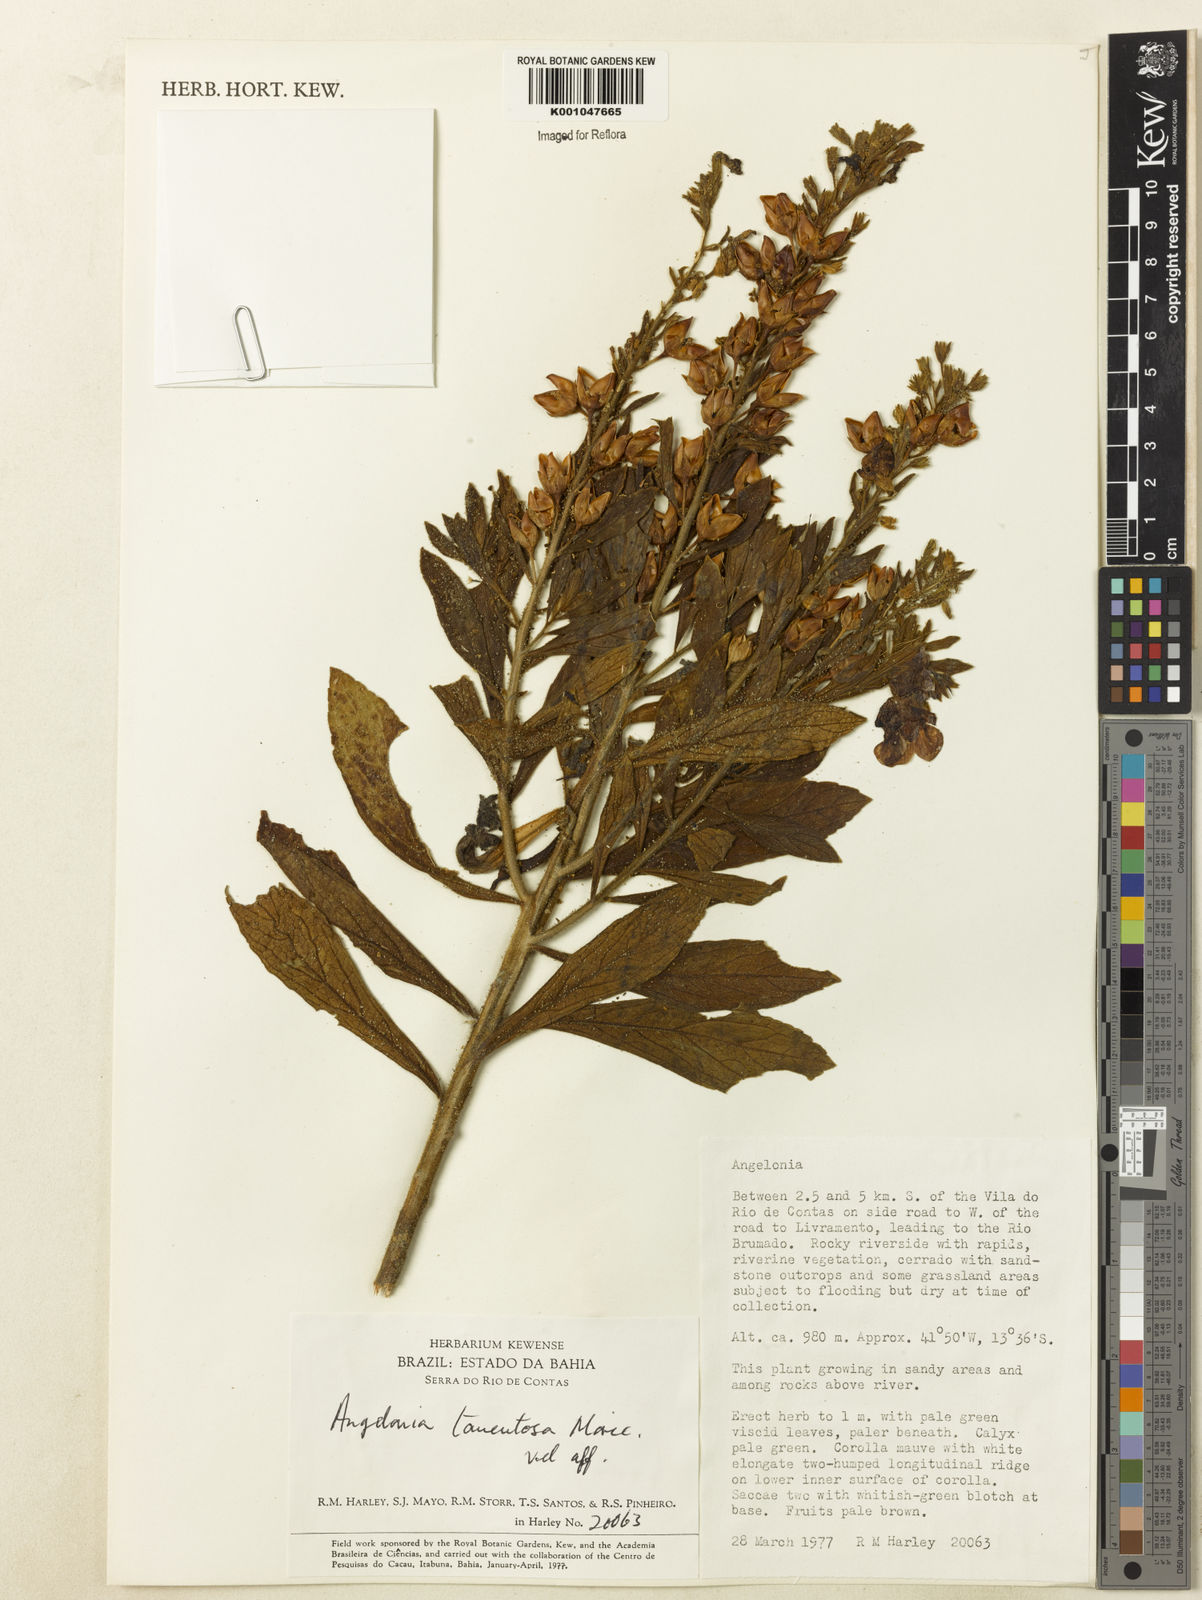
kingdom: Plantae
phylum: Tracheophyta
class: Magnoliopsida
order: Lamiales
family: Plantaginaceae
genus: Angelonia
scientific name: Angelonia tomentosa
